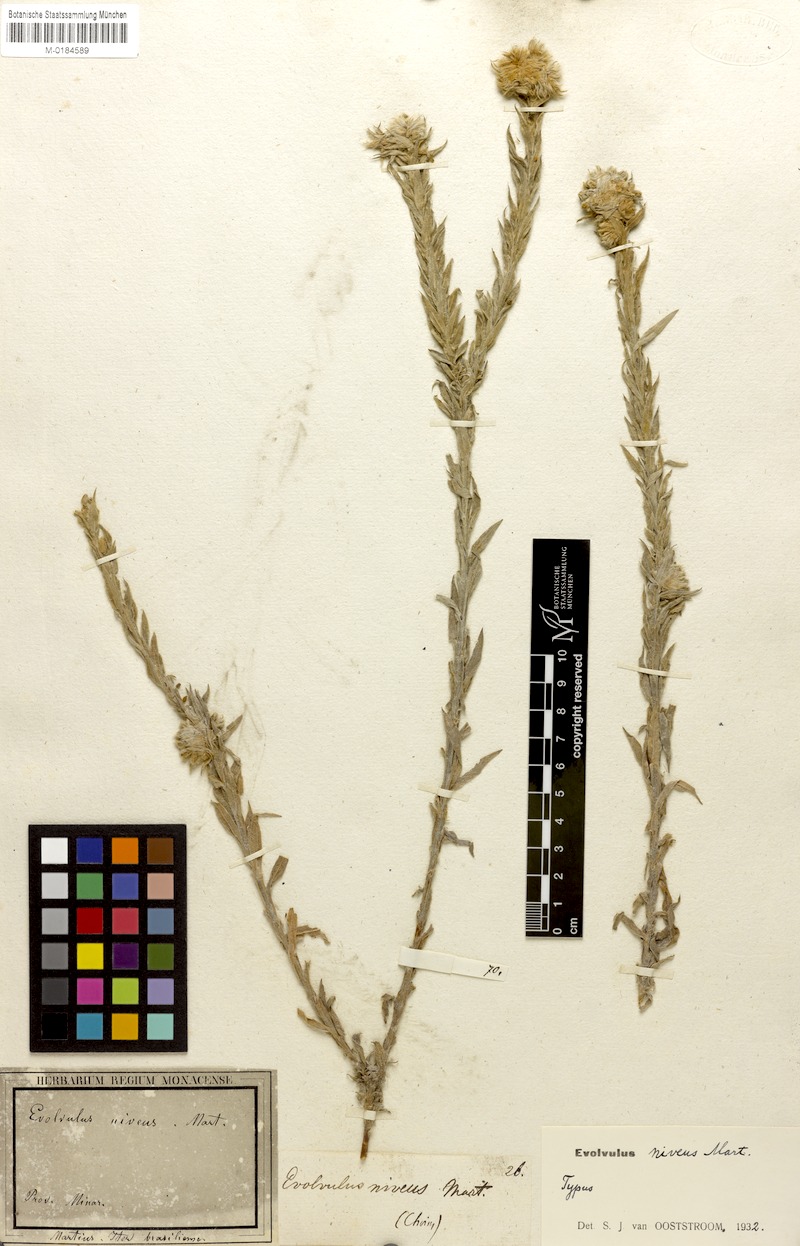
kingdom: Plantae
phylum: Tracheophyta
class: Magnoliopsida
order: Solanales
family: Convolvulaceae
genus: Evolvulus
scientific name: Evolvulus niveus
